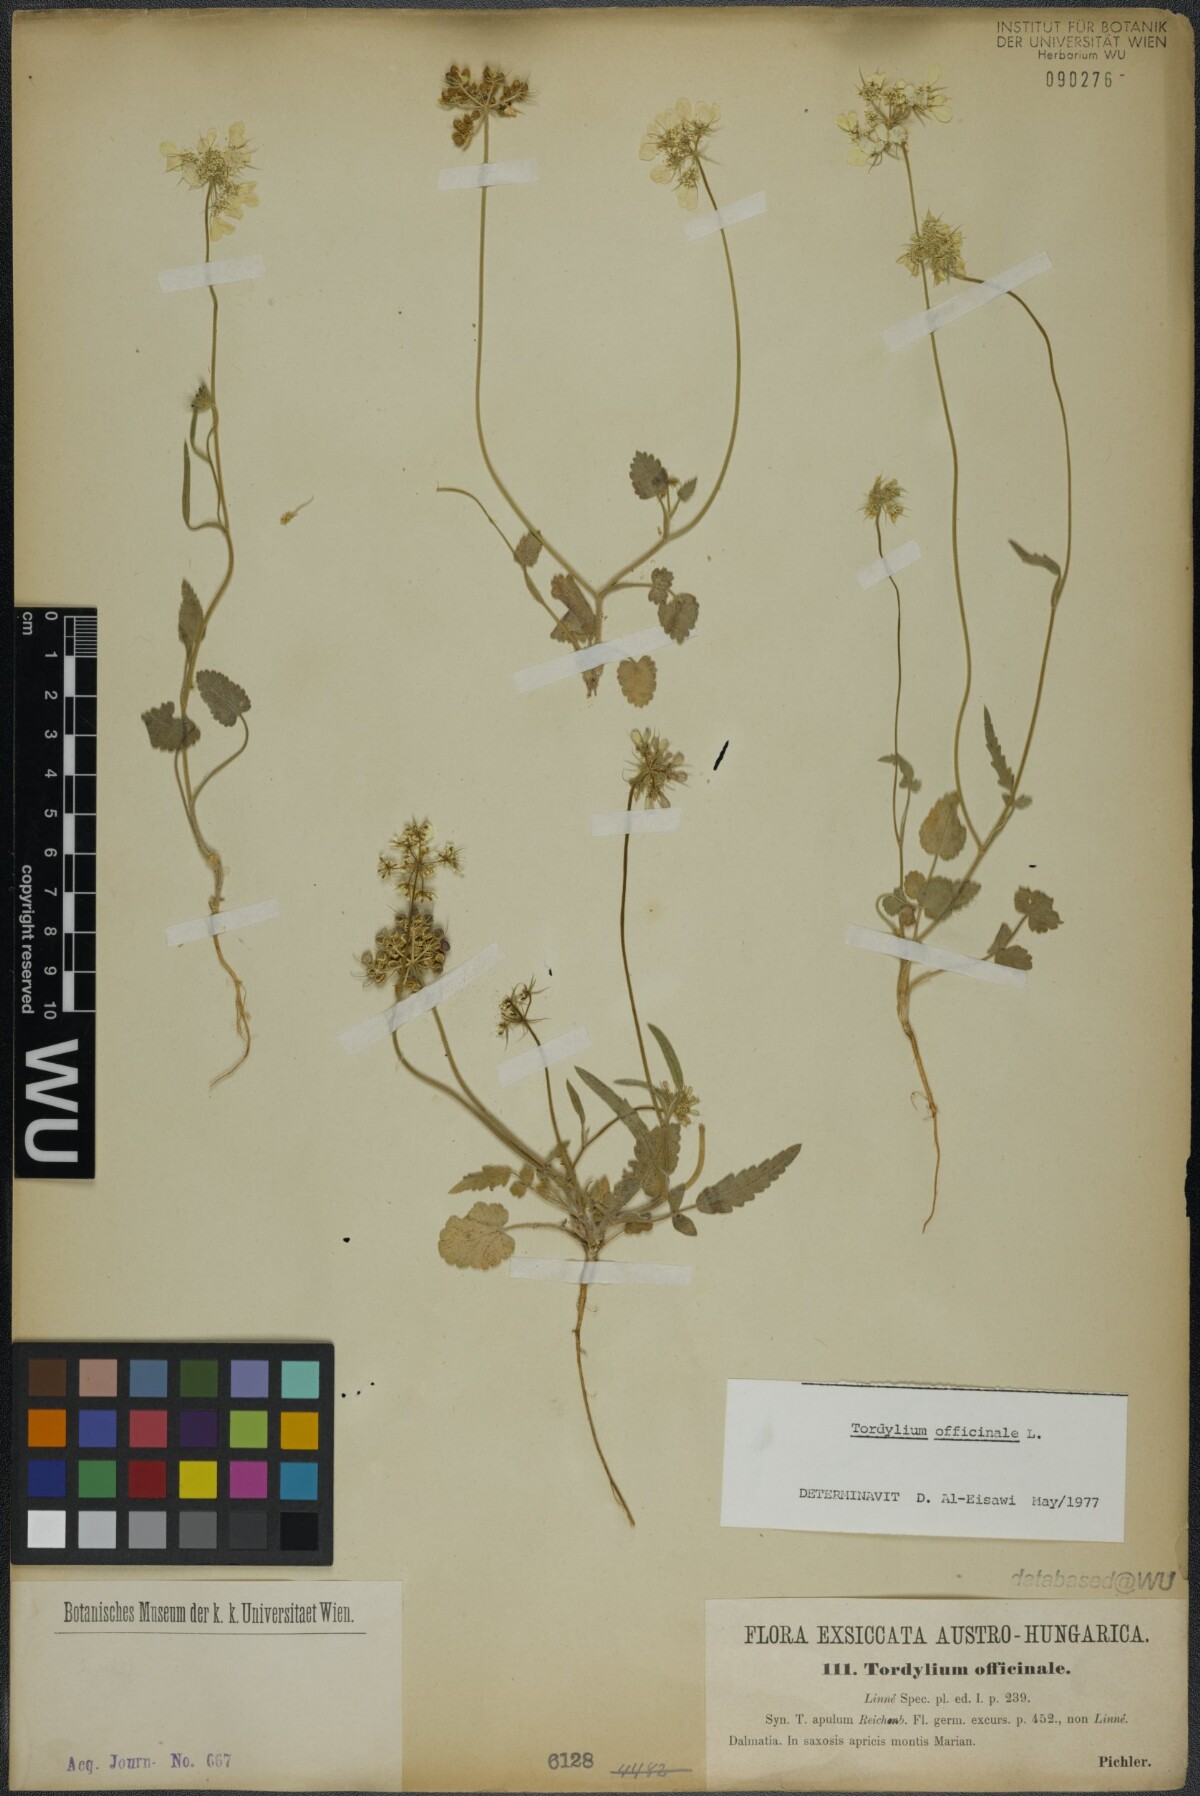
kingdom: Plantae
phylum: Tracheophyta
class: Magnoliopsida
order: Apiales
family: Apiaceae
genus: Tordylium
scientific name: Tordylium officinale
